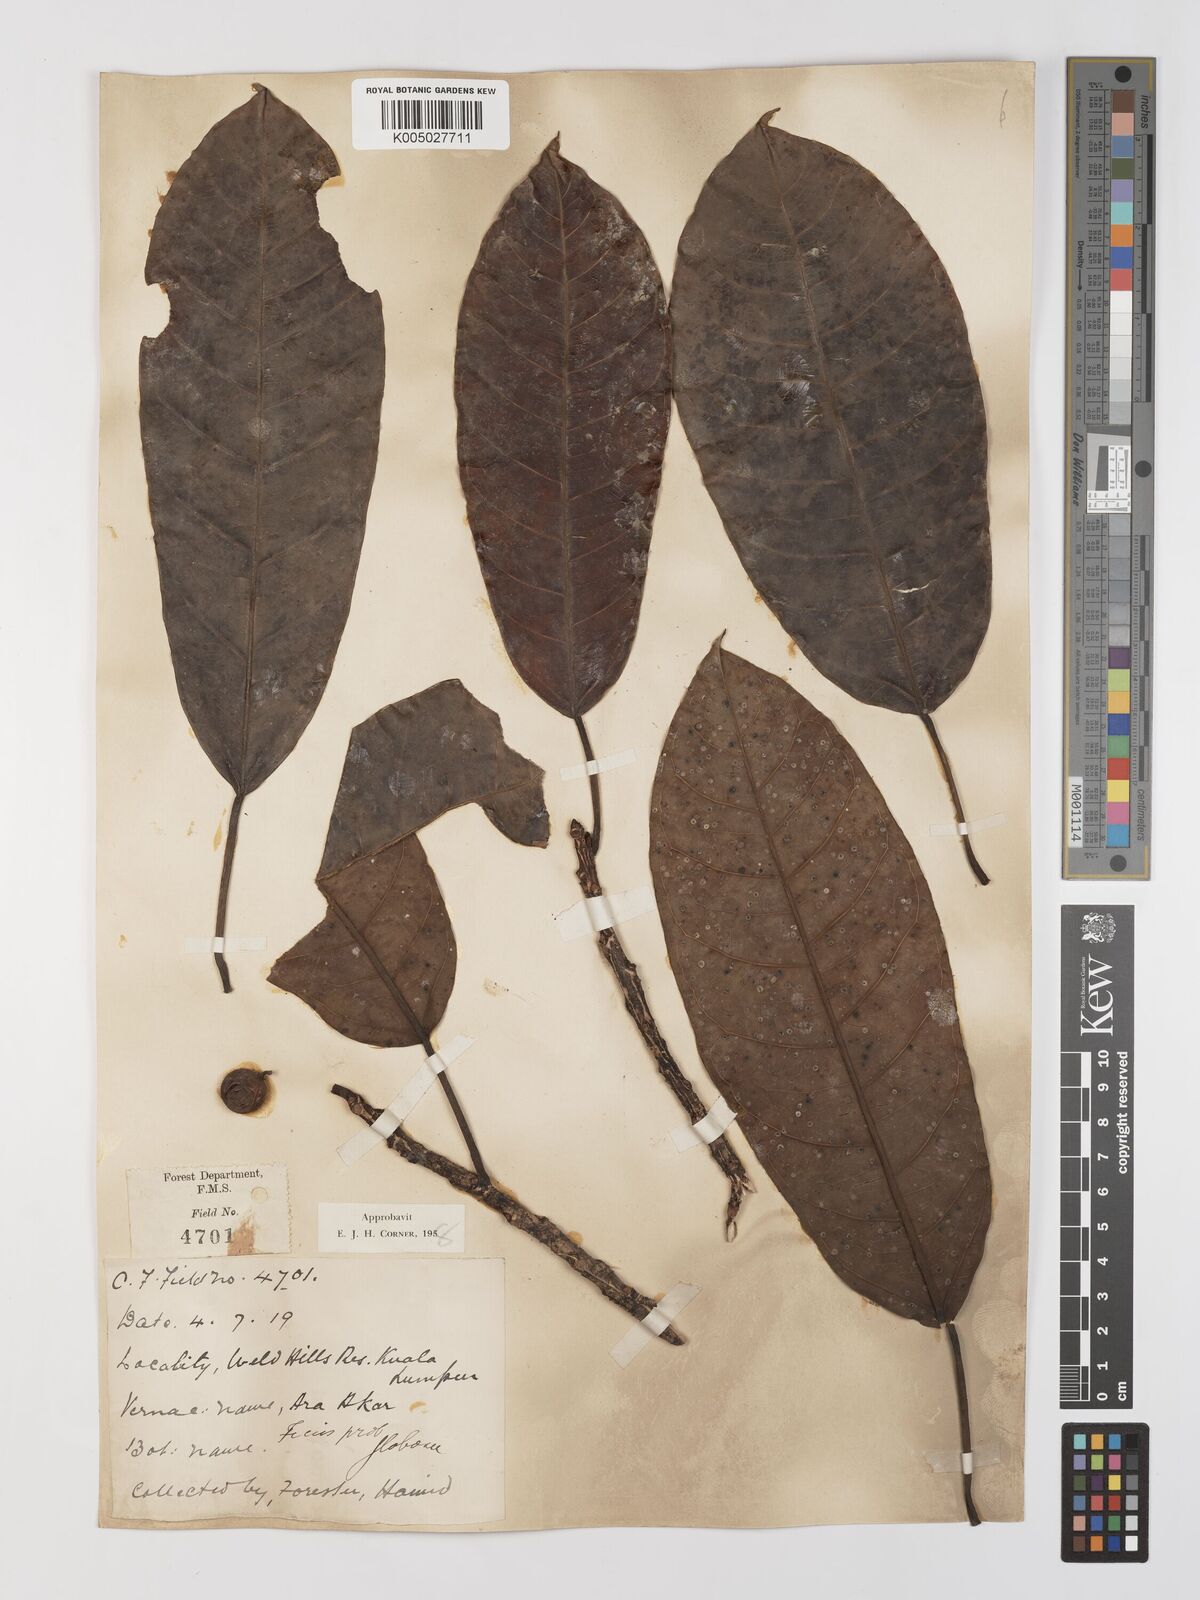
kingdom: Plantae
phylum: Tracheophyta
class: Magnoliopsida
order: Rosales
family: Moraceae
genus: Ficus
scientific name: Ficus
